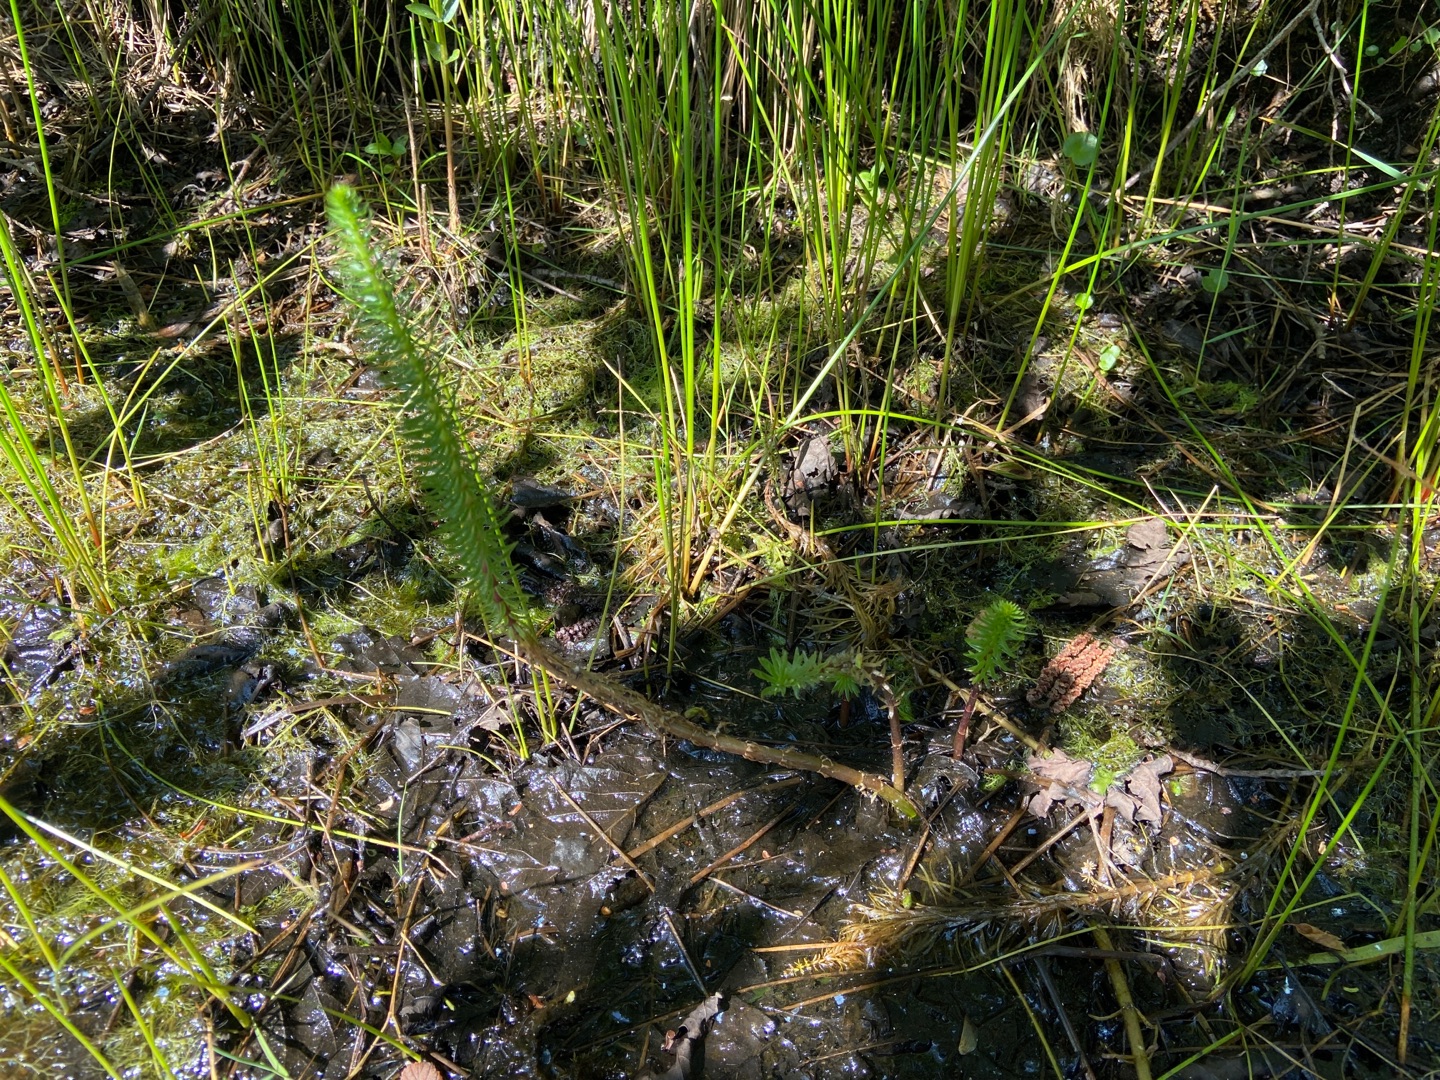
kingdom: Plantae
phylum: Tracheophyta
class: Magnoliopsida
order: Lamiales
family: Plantaginaceae
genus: Hippuris
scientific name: Hippuris vulgaris
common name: Vandspir
